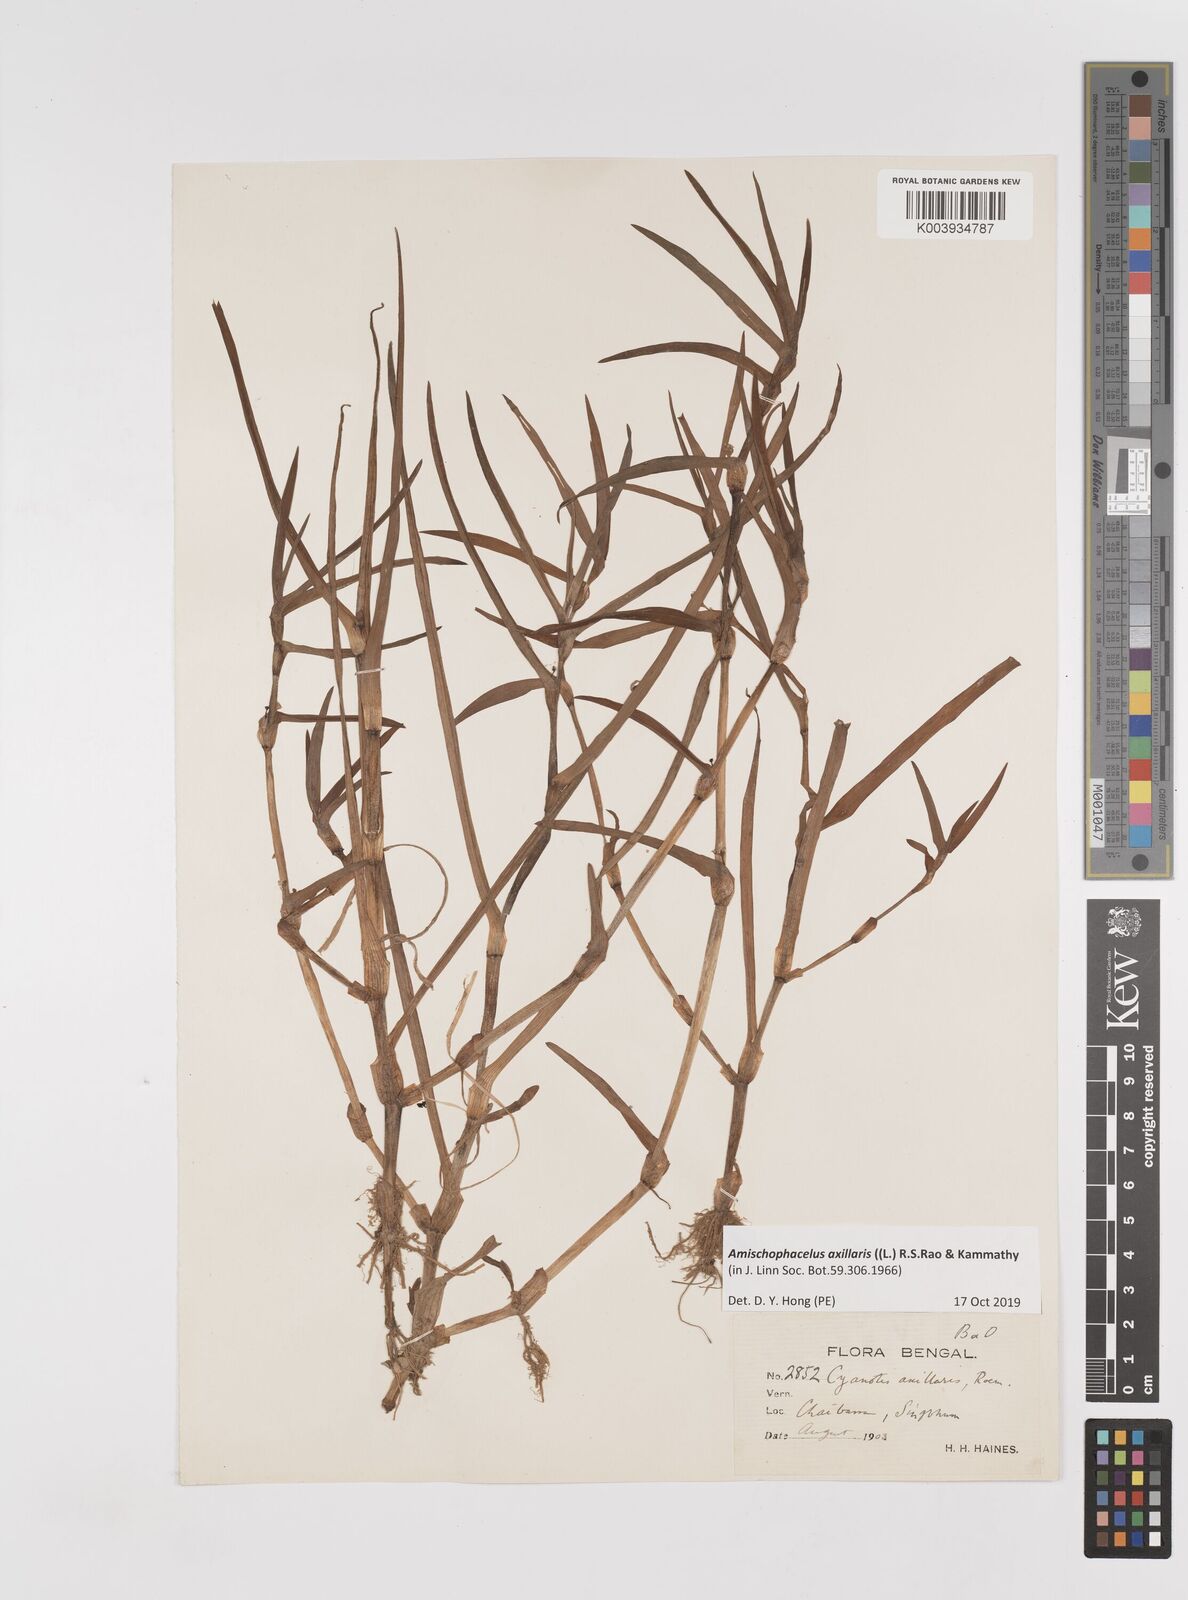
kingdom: Plantae
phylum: Tracheophyta
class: Liliopsida
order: Commelinales
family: Commelinaceae
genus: Cyanotis
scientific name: Cyanotis axillaris
